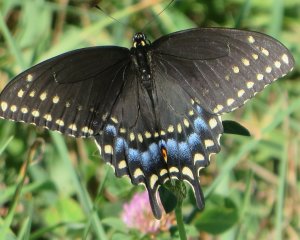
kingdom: Animalia
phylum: Arthropoda
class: Insecta
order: Lepidoptera
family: Papilionidae
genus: Papilio
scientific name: Papilio polyxenes
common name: Black Swallowtail
